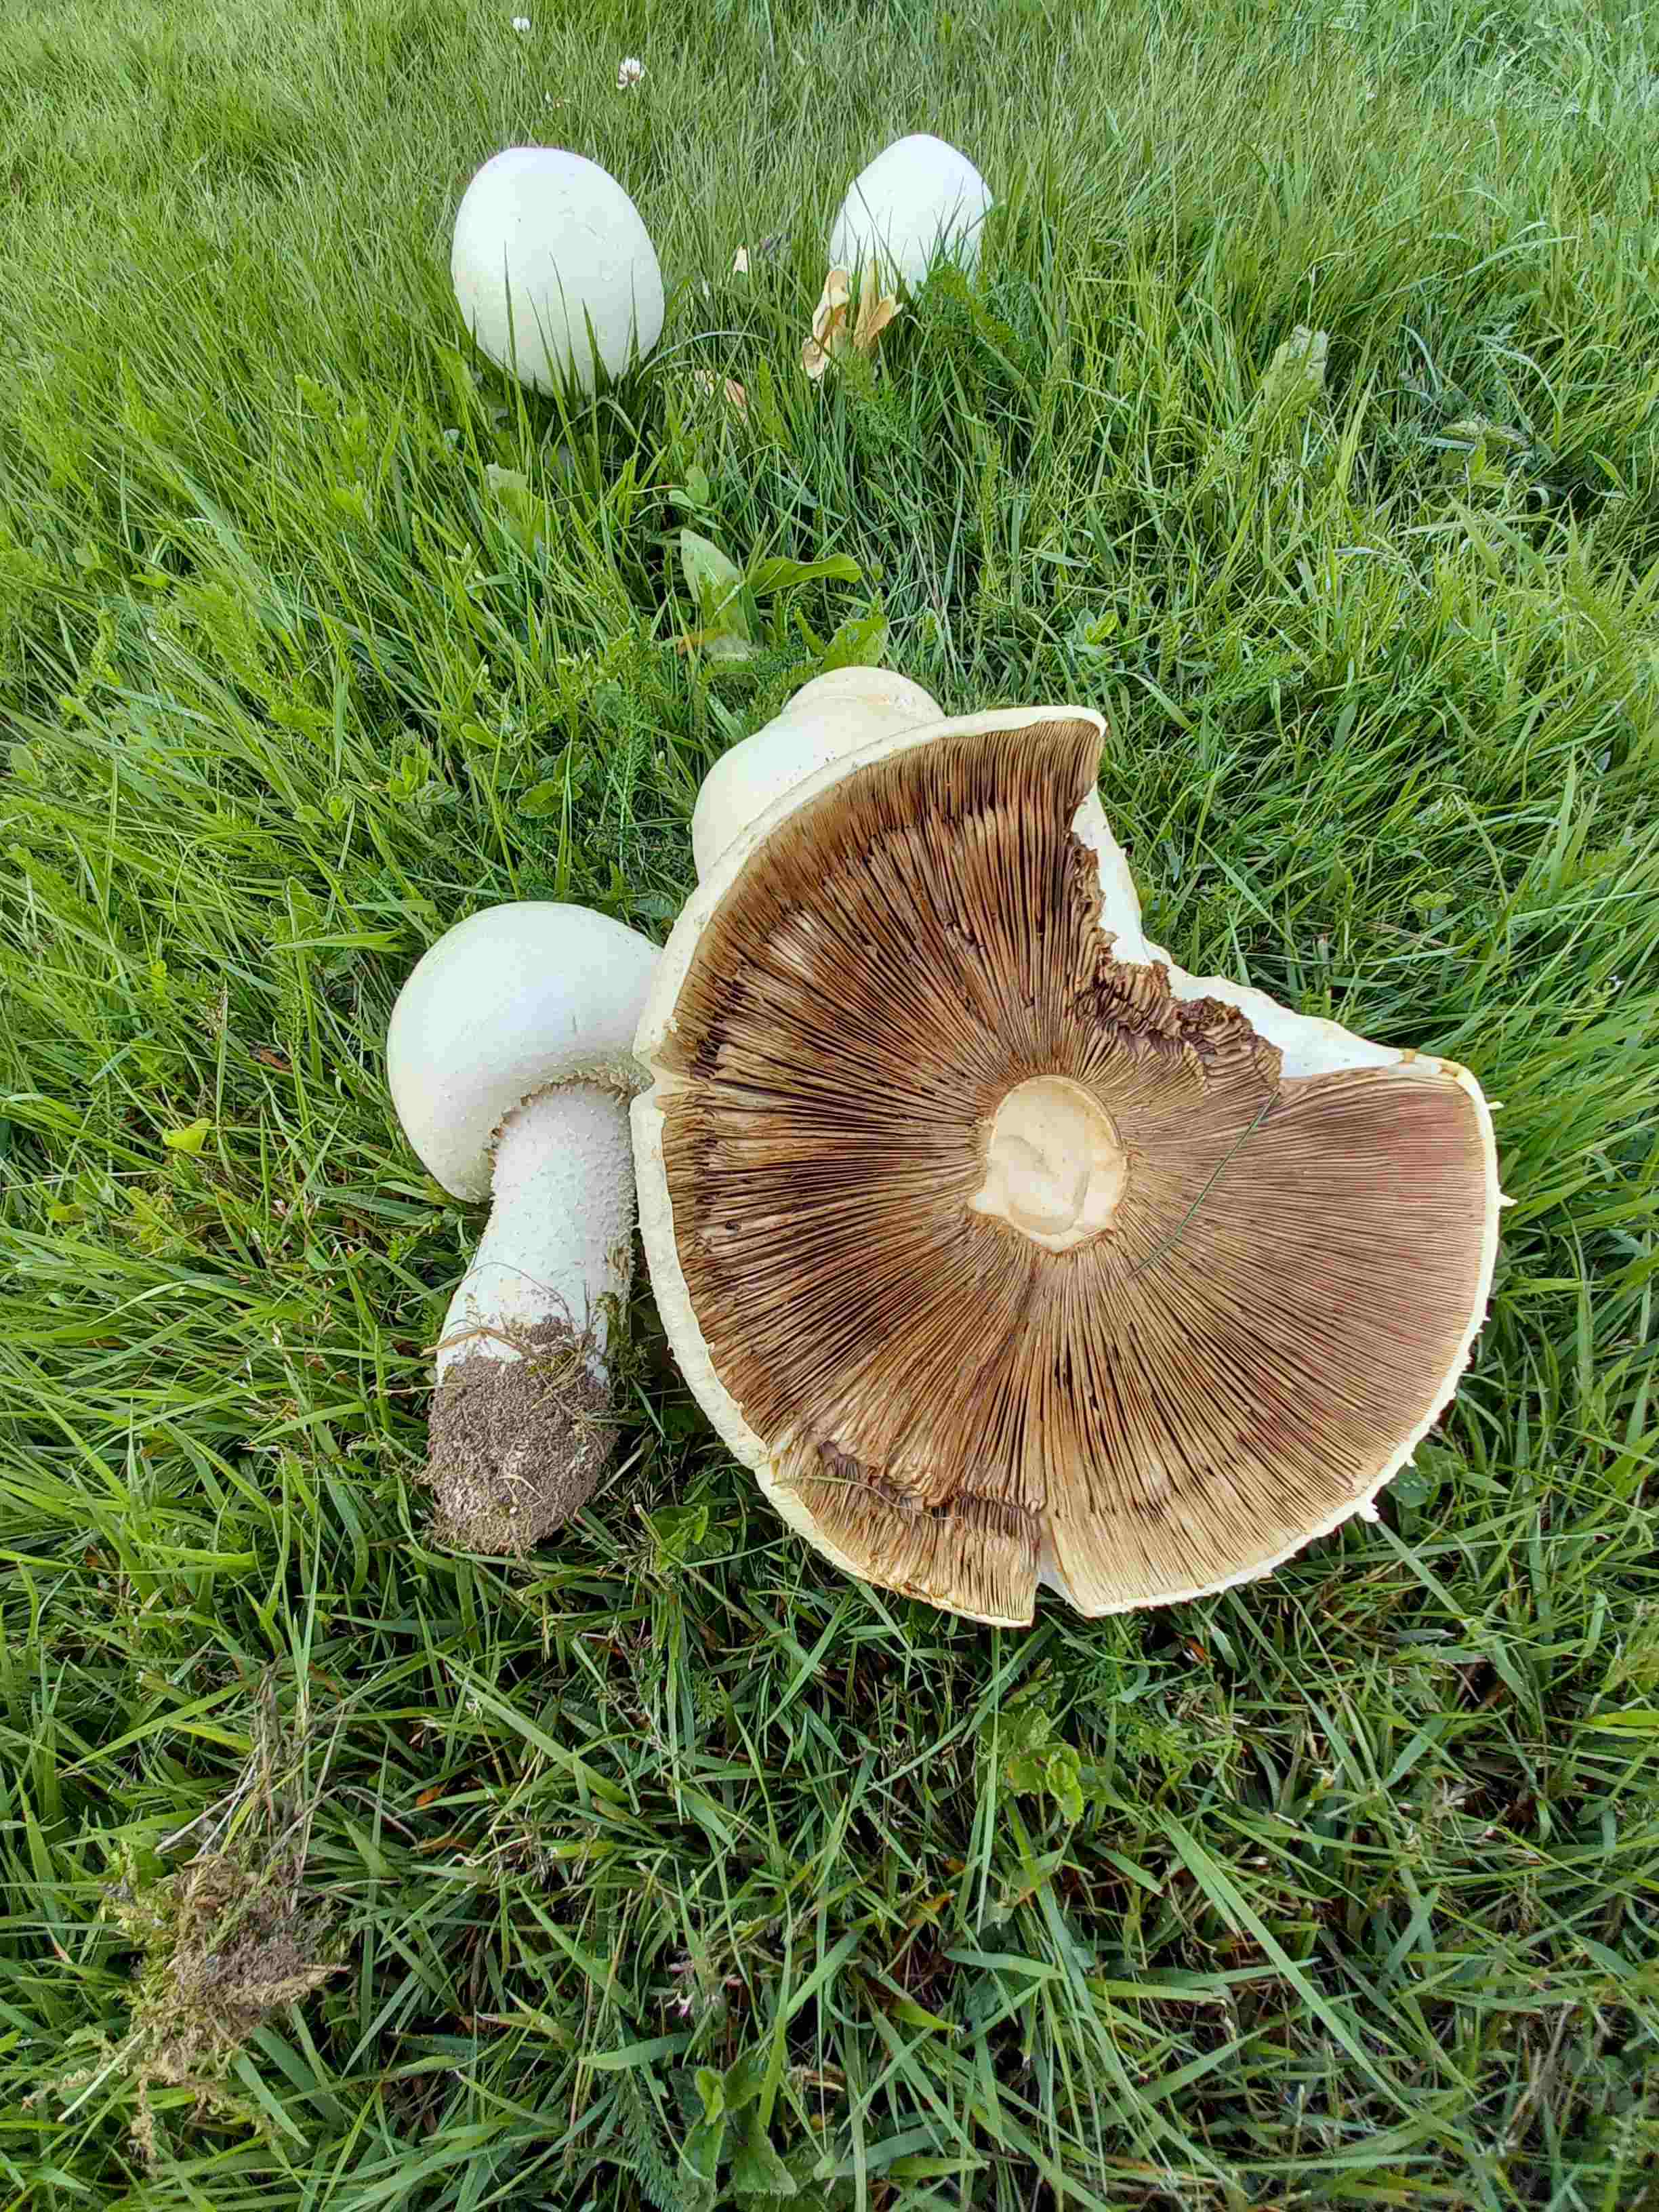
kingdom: Fungi
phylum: Basidiomycota
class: Agaricomycetes
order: Agaricales
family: Agaricaceae
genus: Agaricus
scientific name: Agaricus
